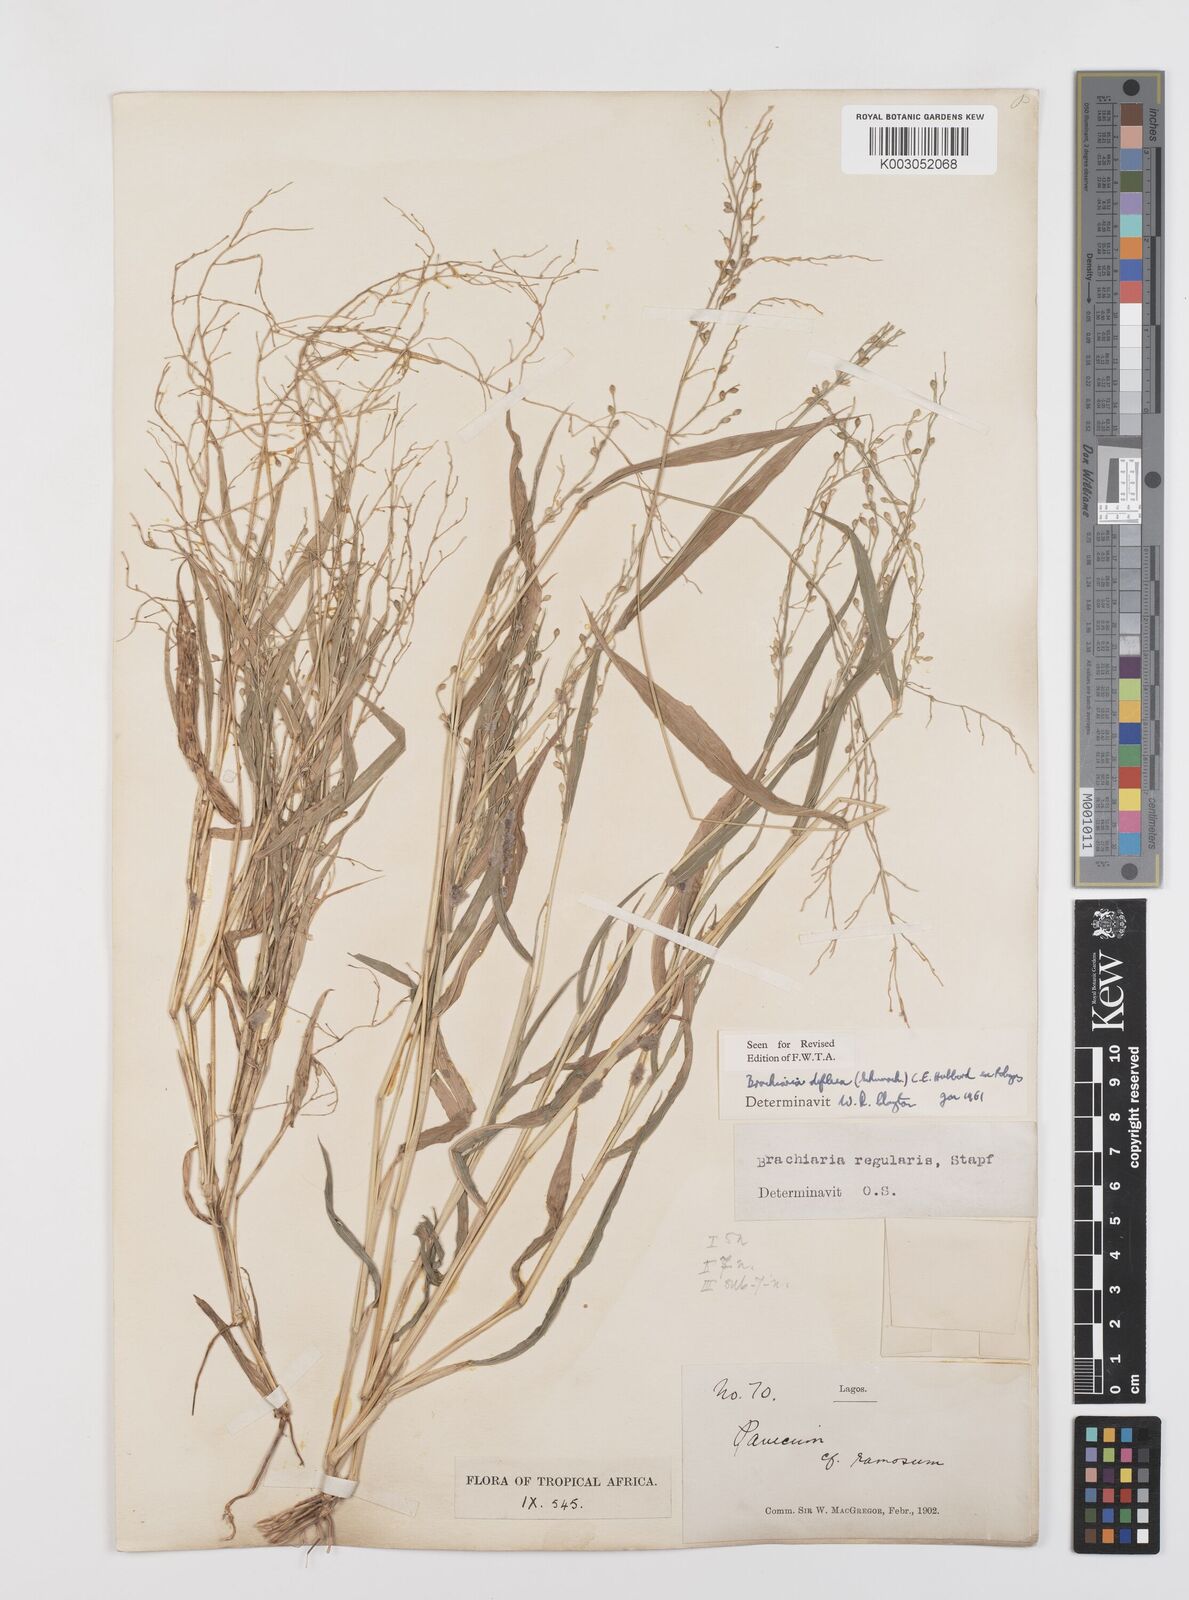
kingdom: Plantae
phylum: Tracheophyta
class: Liliopsida
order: Poales
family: Poaceae
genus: Urochloa
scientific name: Urochloa deflexa
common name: Guinea millet
